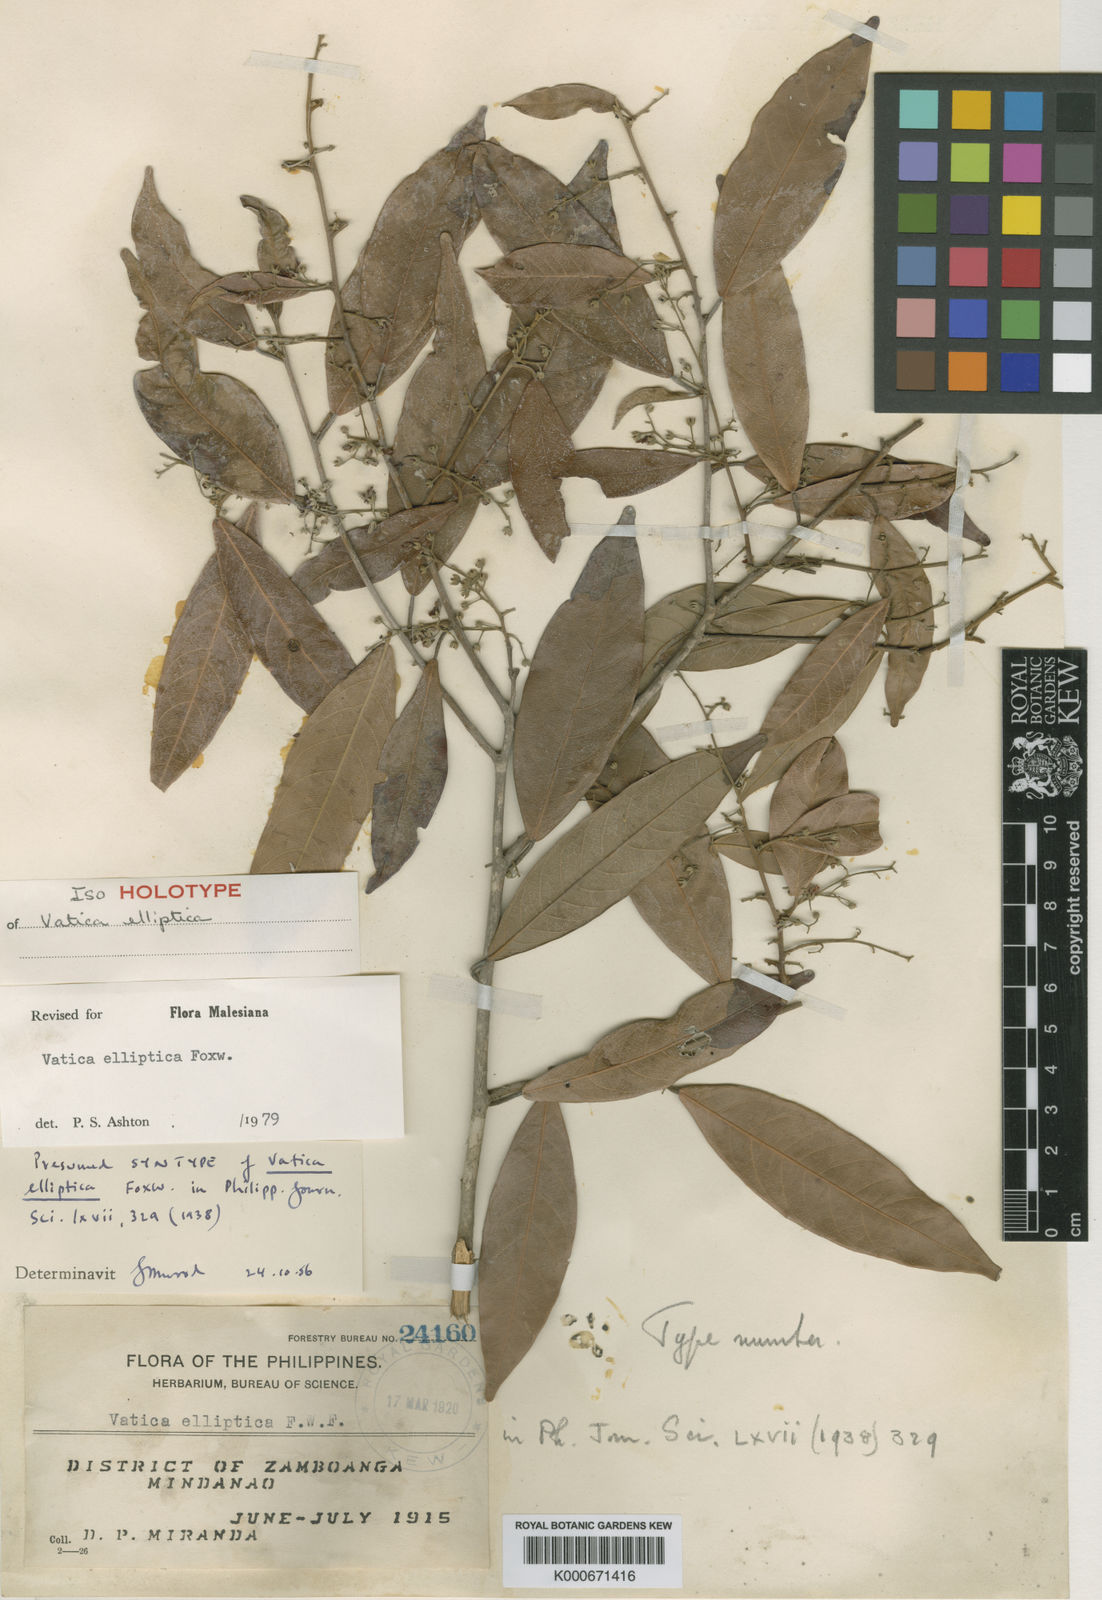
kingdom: Plantae
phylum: Tracheophyta
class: Magnoliopsida
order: Malvales
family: Dipterocarpaceae
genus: Vatica
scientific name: Vatica elliptica
